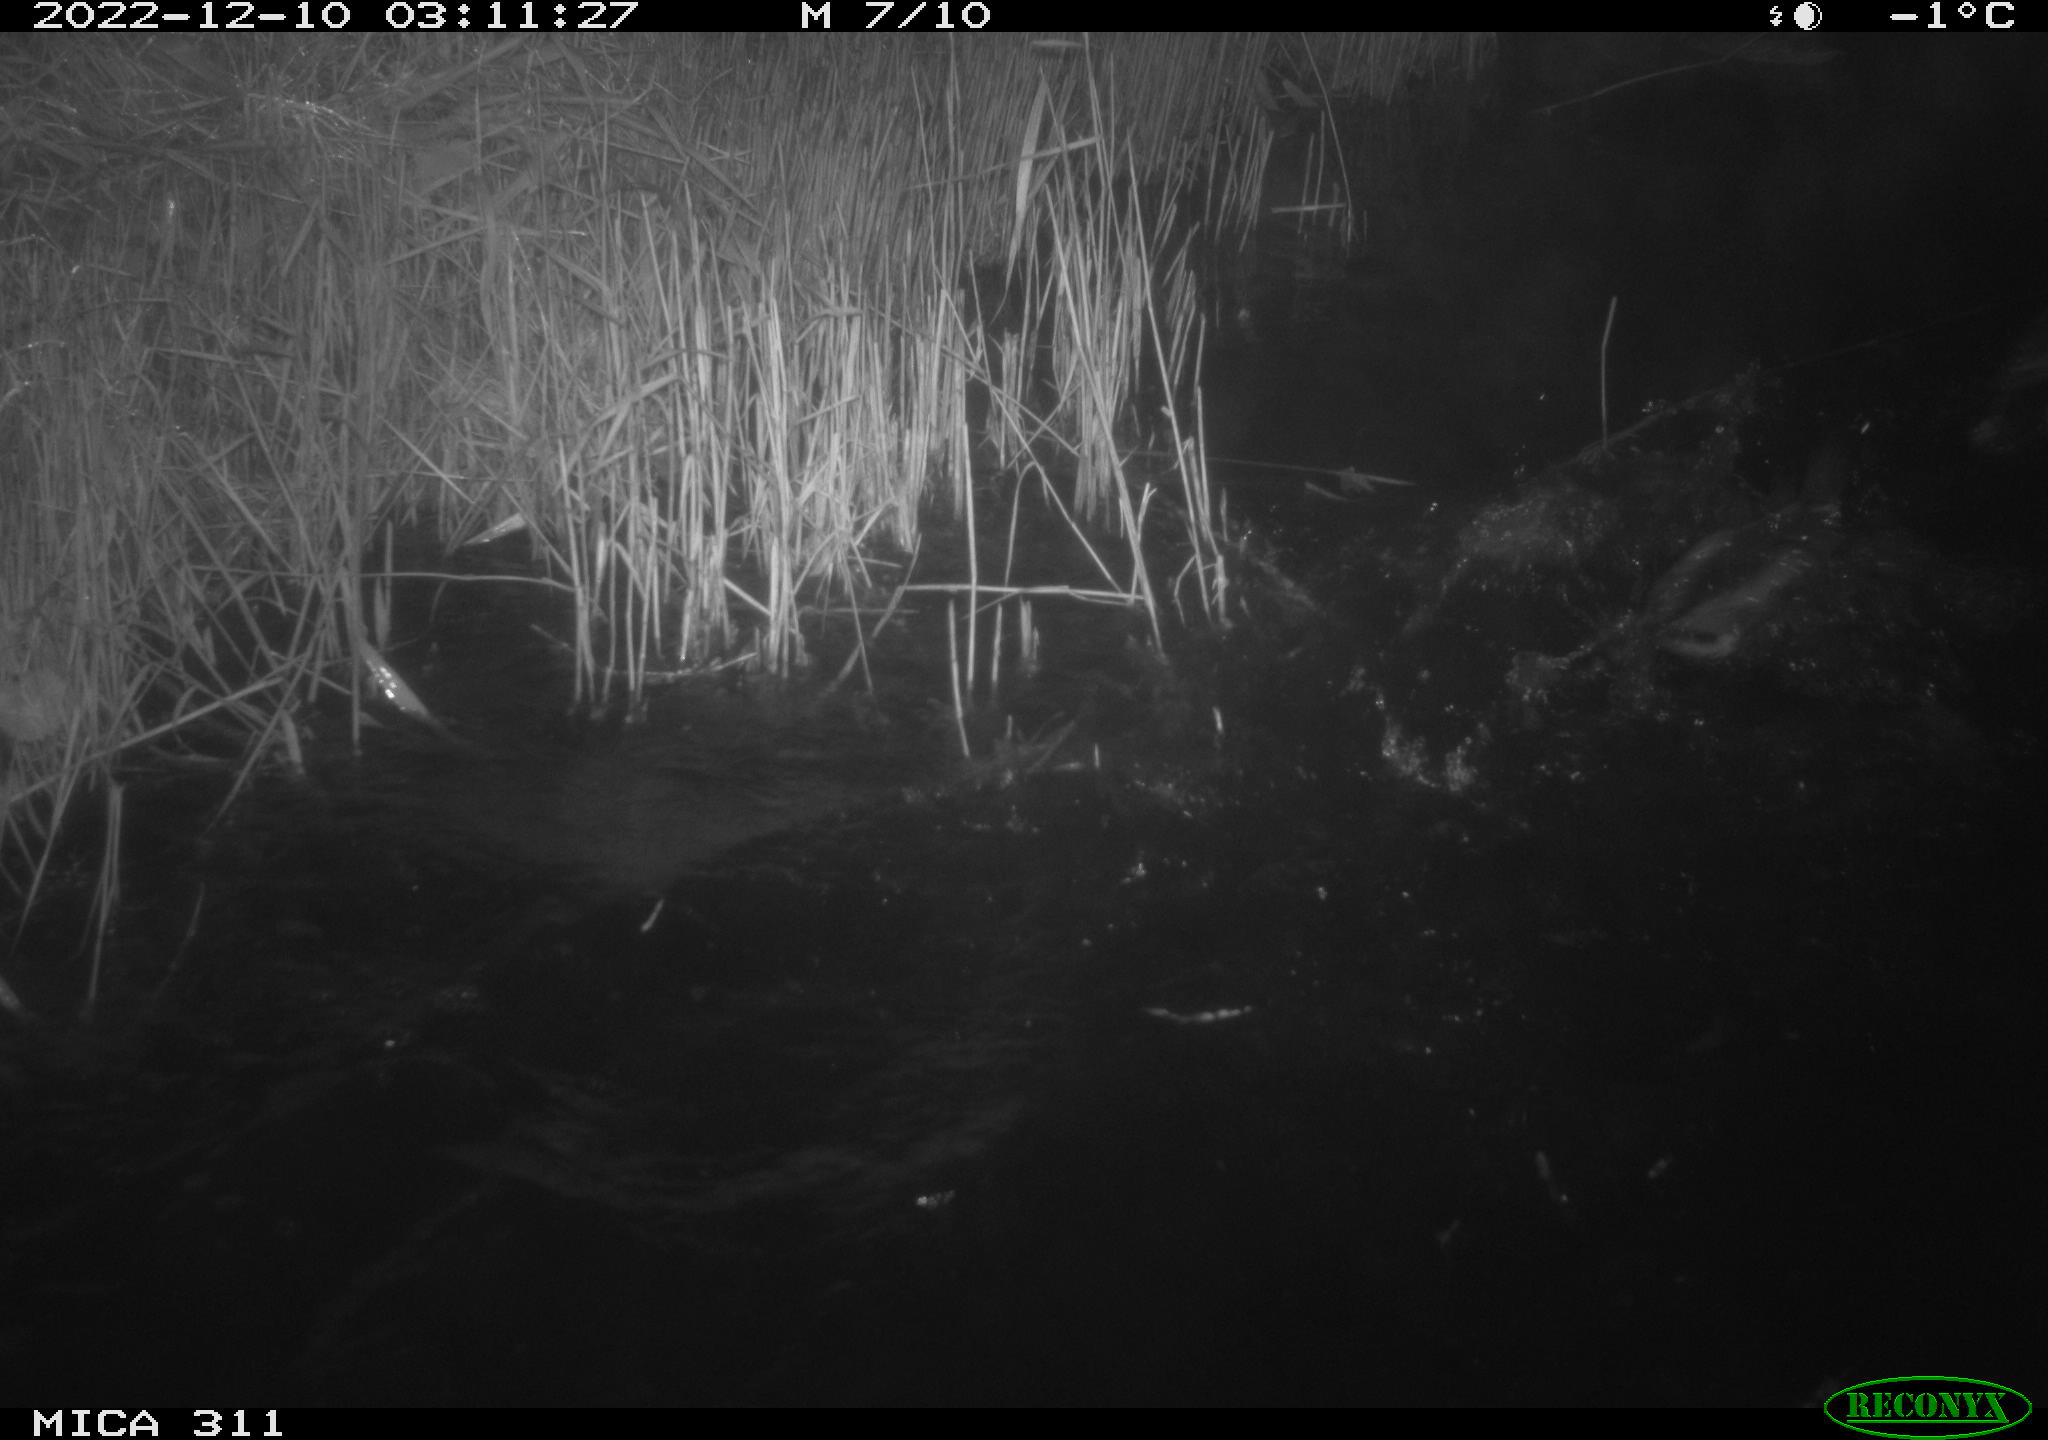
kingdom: Animalia
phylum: Chordata
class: Aves
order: Anseriformes
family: Anatidae
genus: Anas
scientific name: Anas
